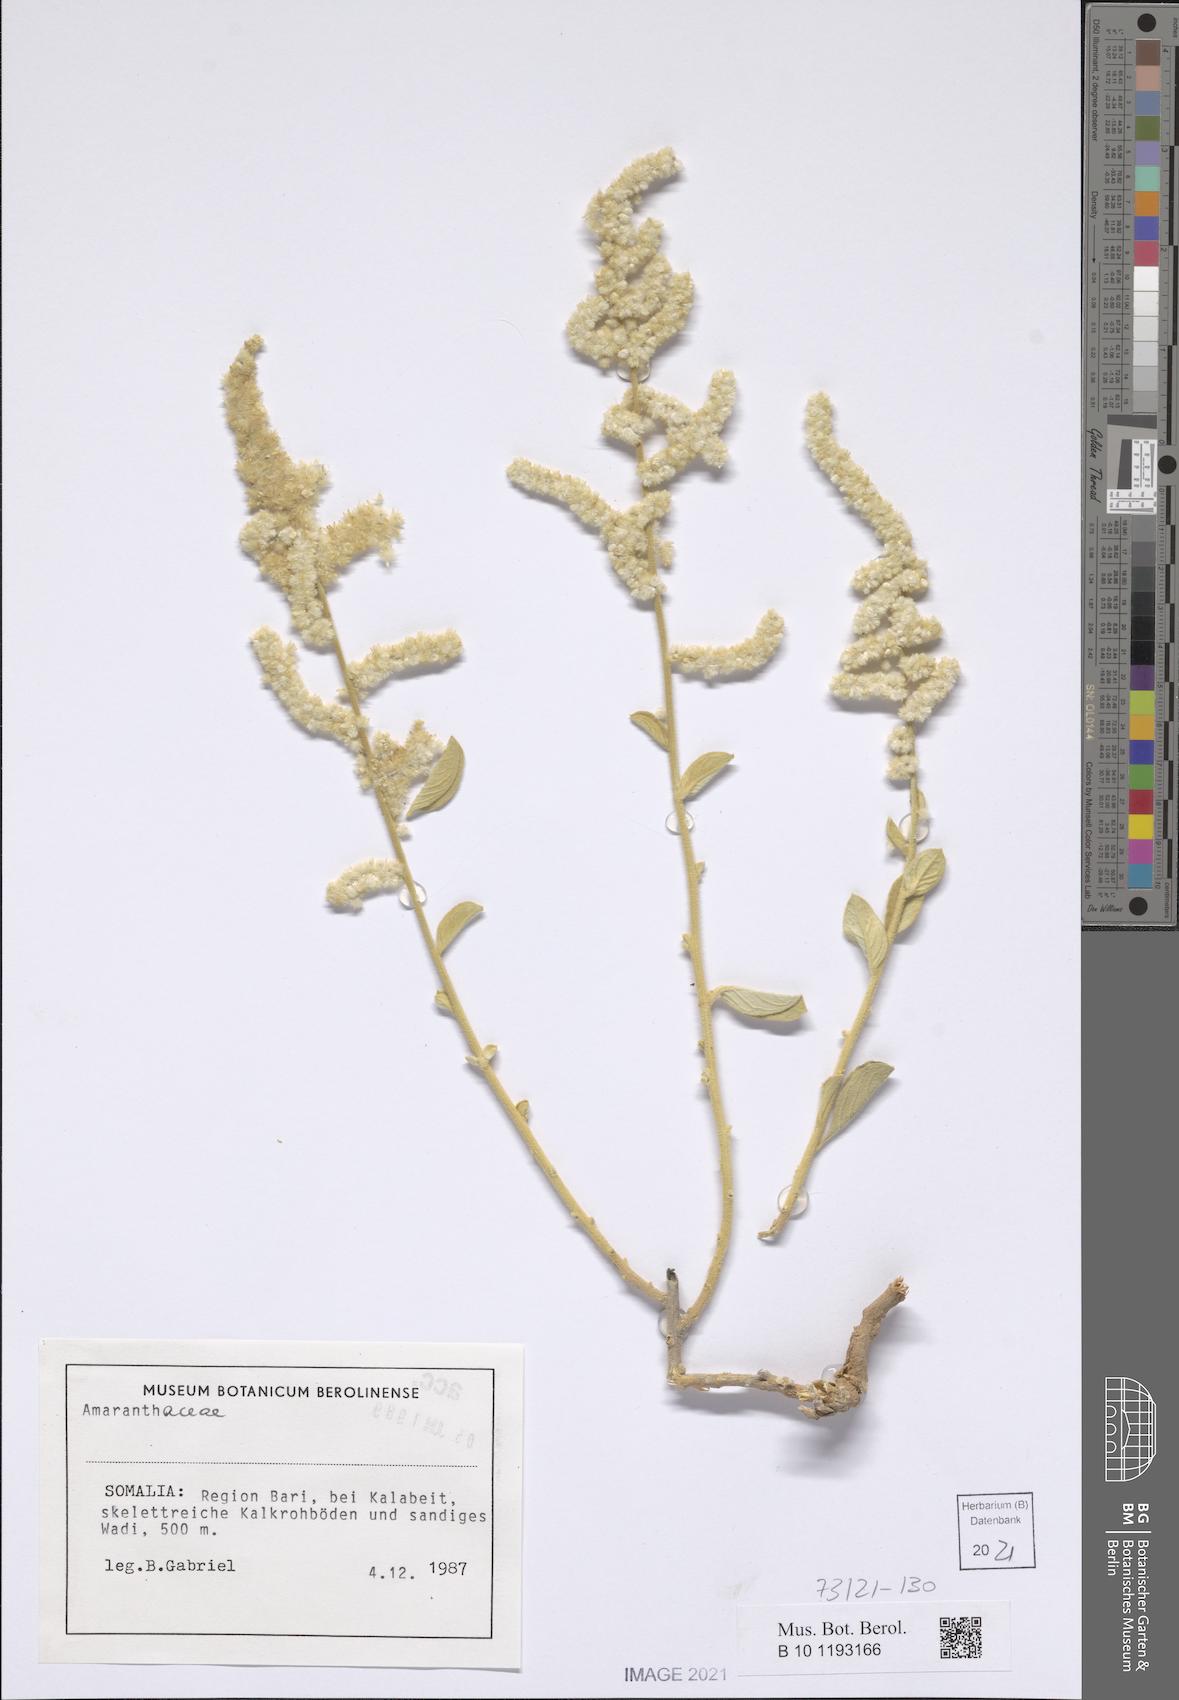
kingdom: Plantae
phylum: Tracheophyta
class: Magnoliopsida
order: Caryophyllales
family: Amaranthaceae
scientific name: Amaranthaceae
